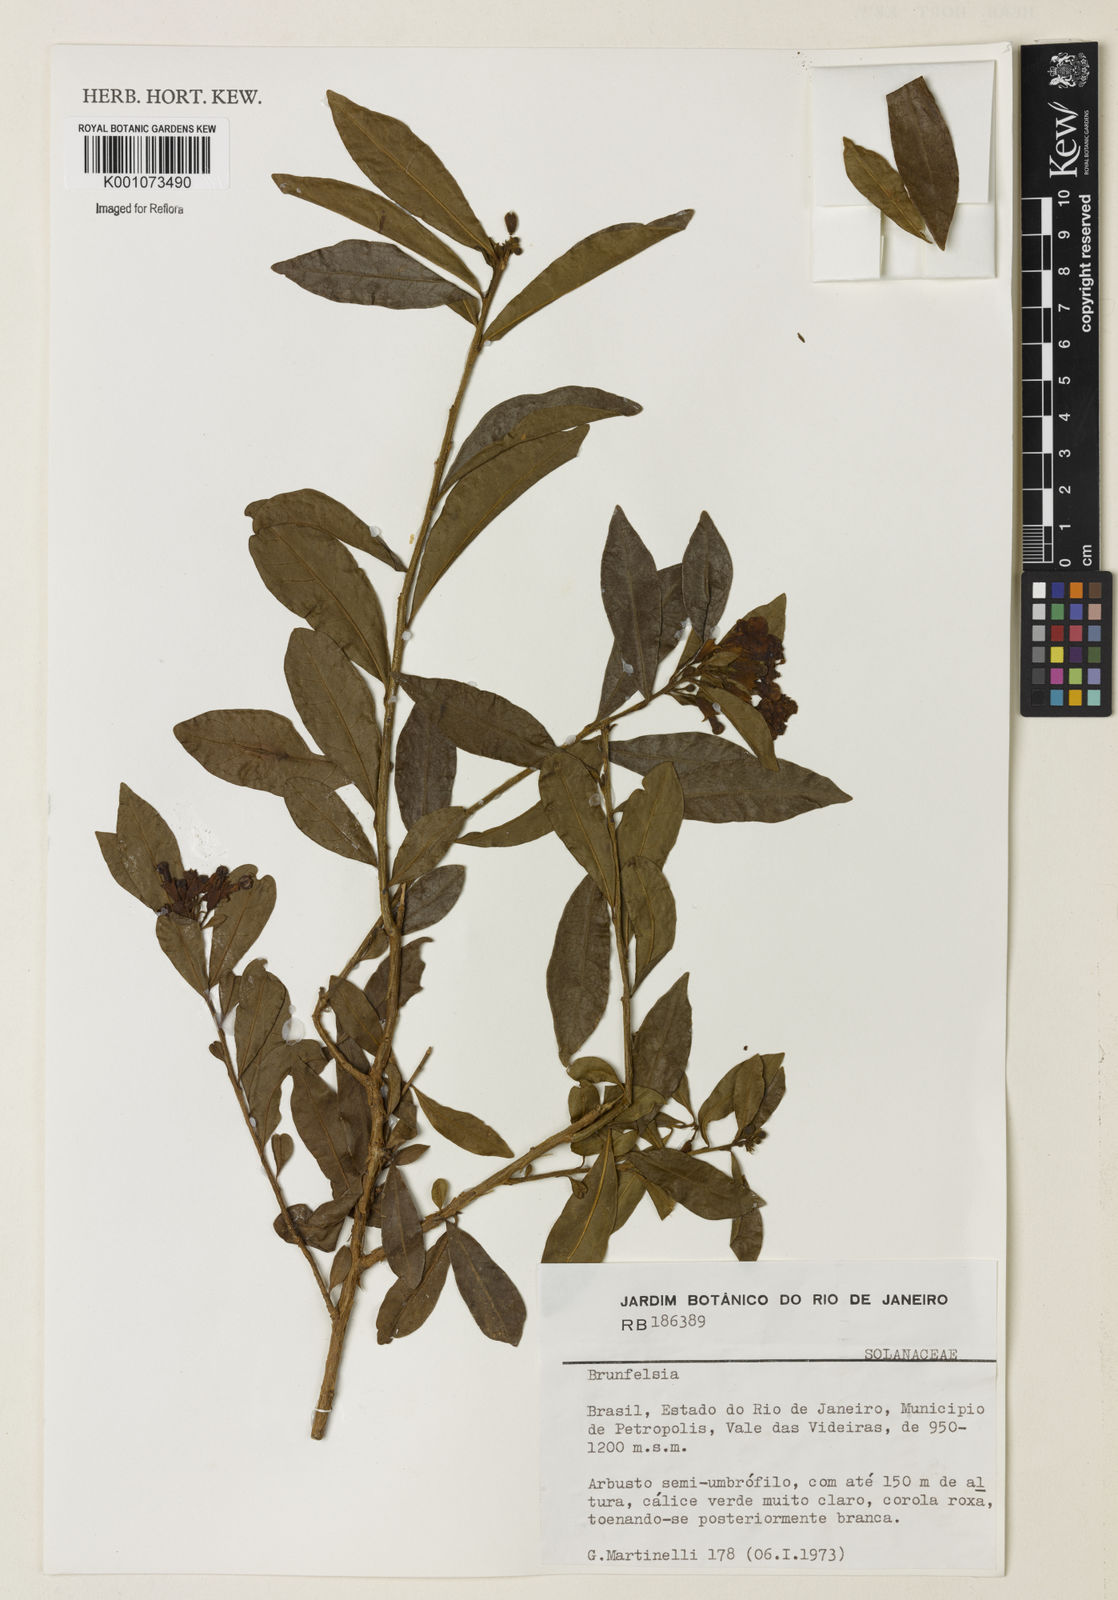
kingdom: Plantae
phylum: Tracheophyta
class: Magnoliopsida
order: Solanales
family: Solanaceae
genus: Brunfelsia
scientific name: Brunfelsia
